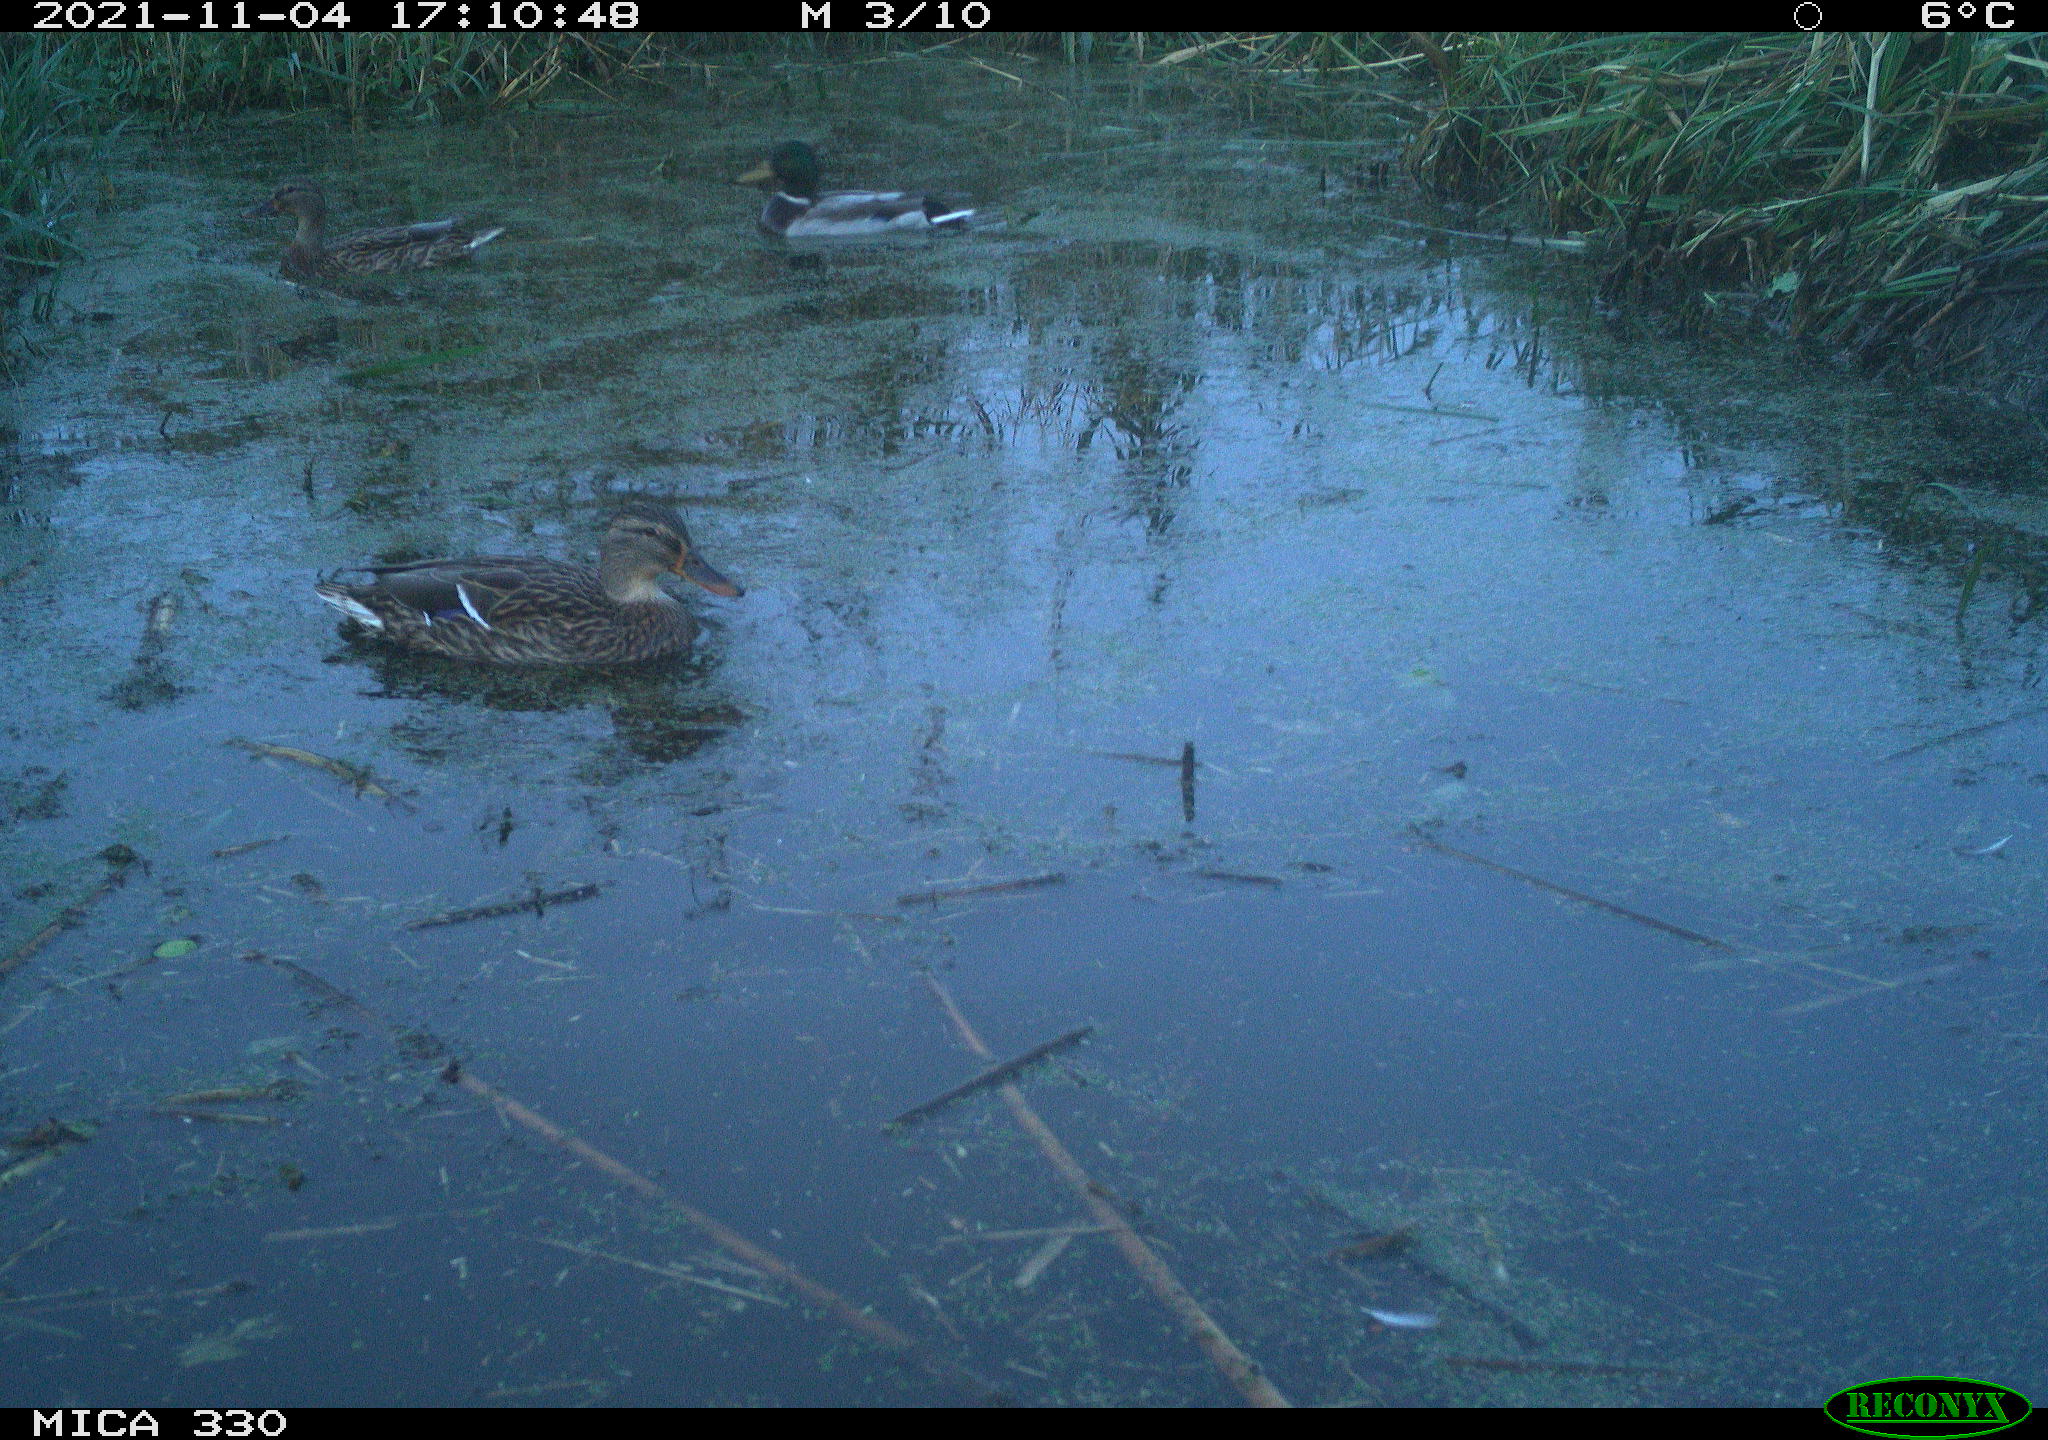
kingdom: Animalia
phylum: Chordata
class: Aves
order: Gruiformes
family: Rallidae
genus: Gallinula
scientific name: Gallinula chloropus
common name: Common moorhen
